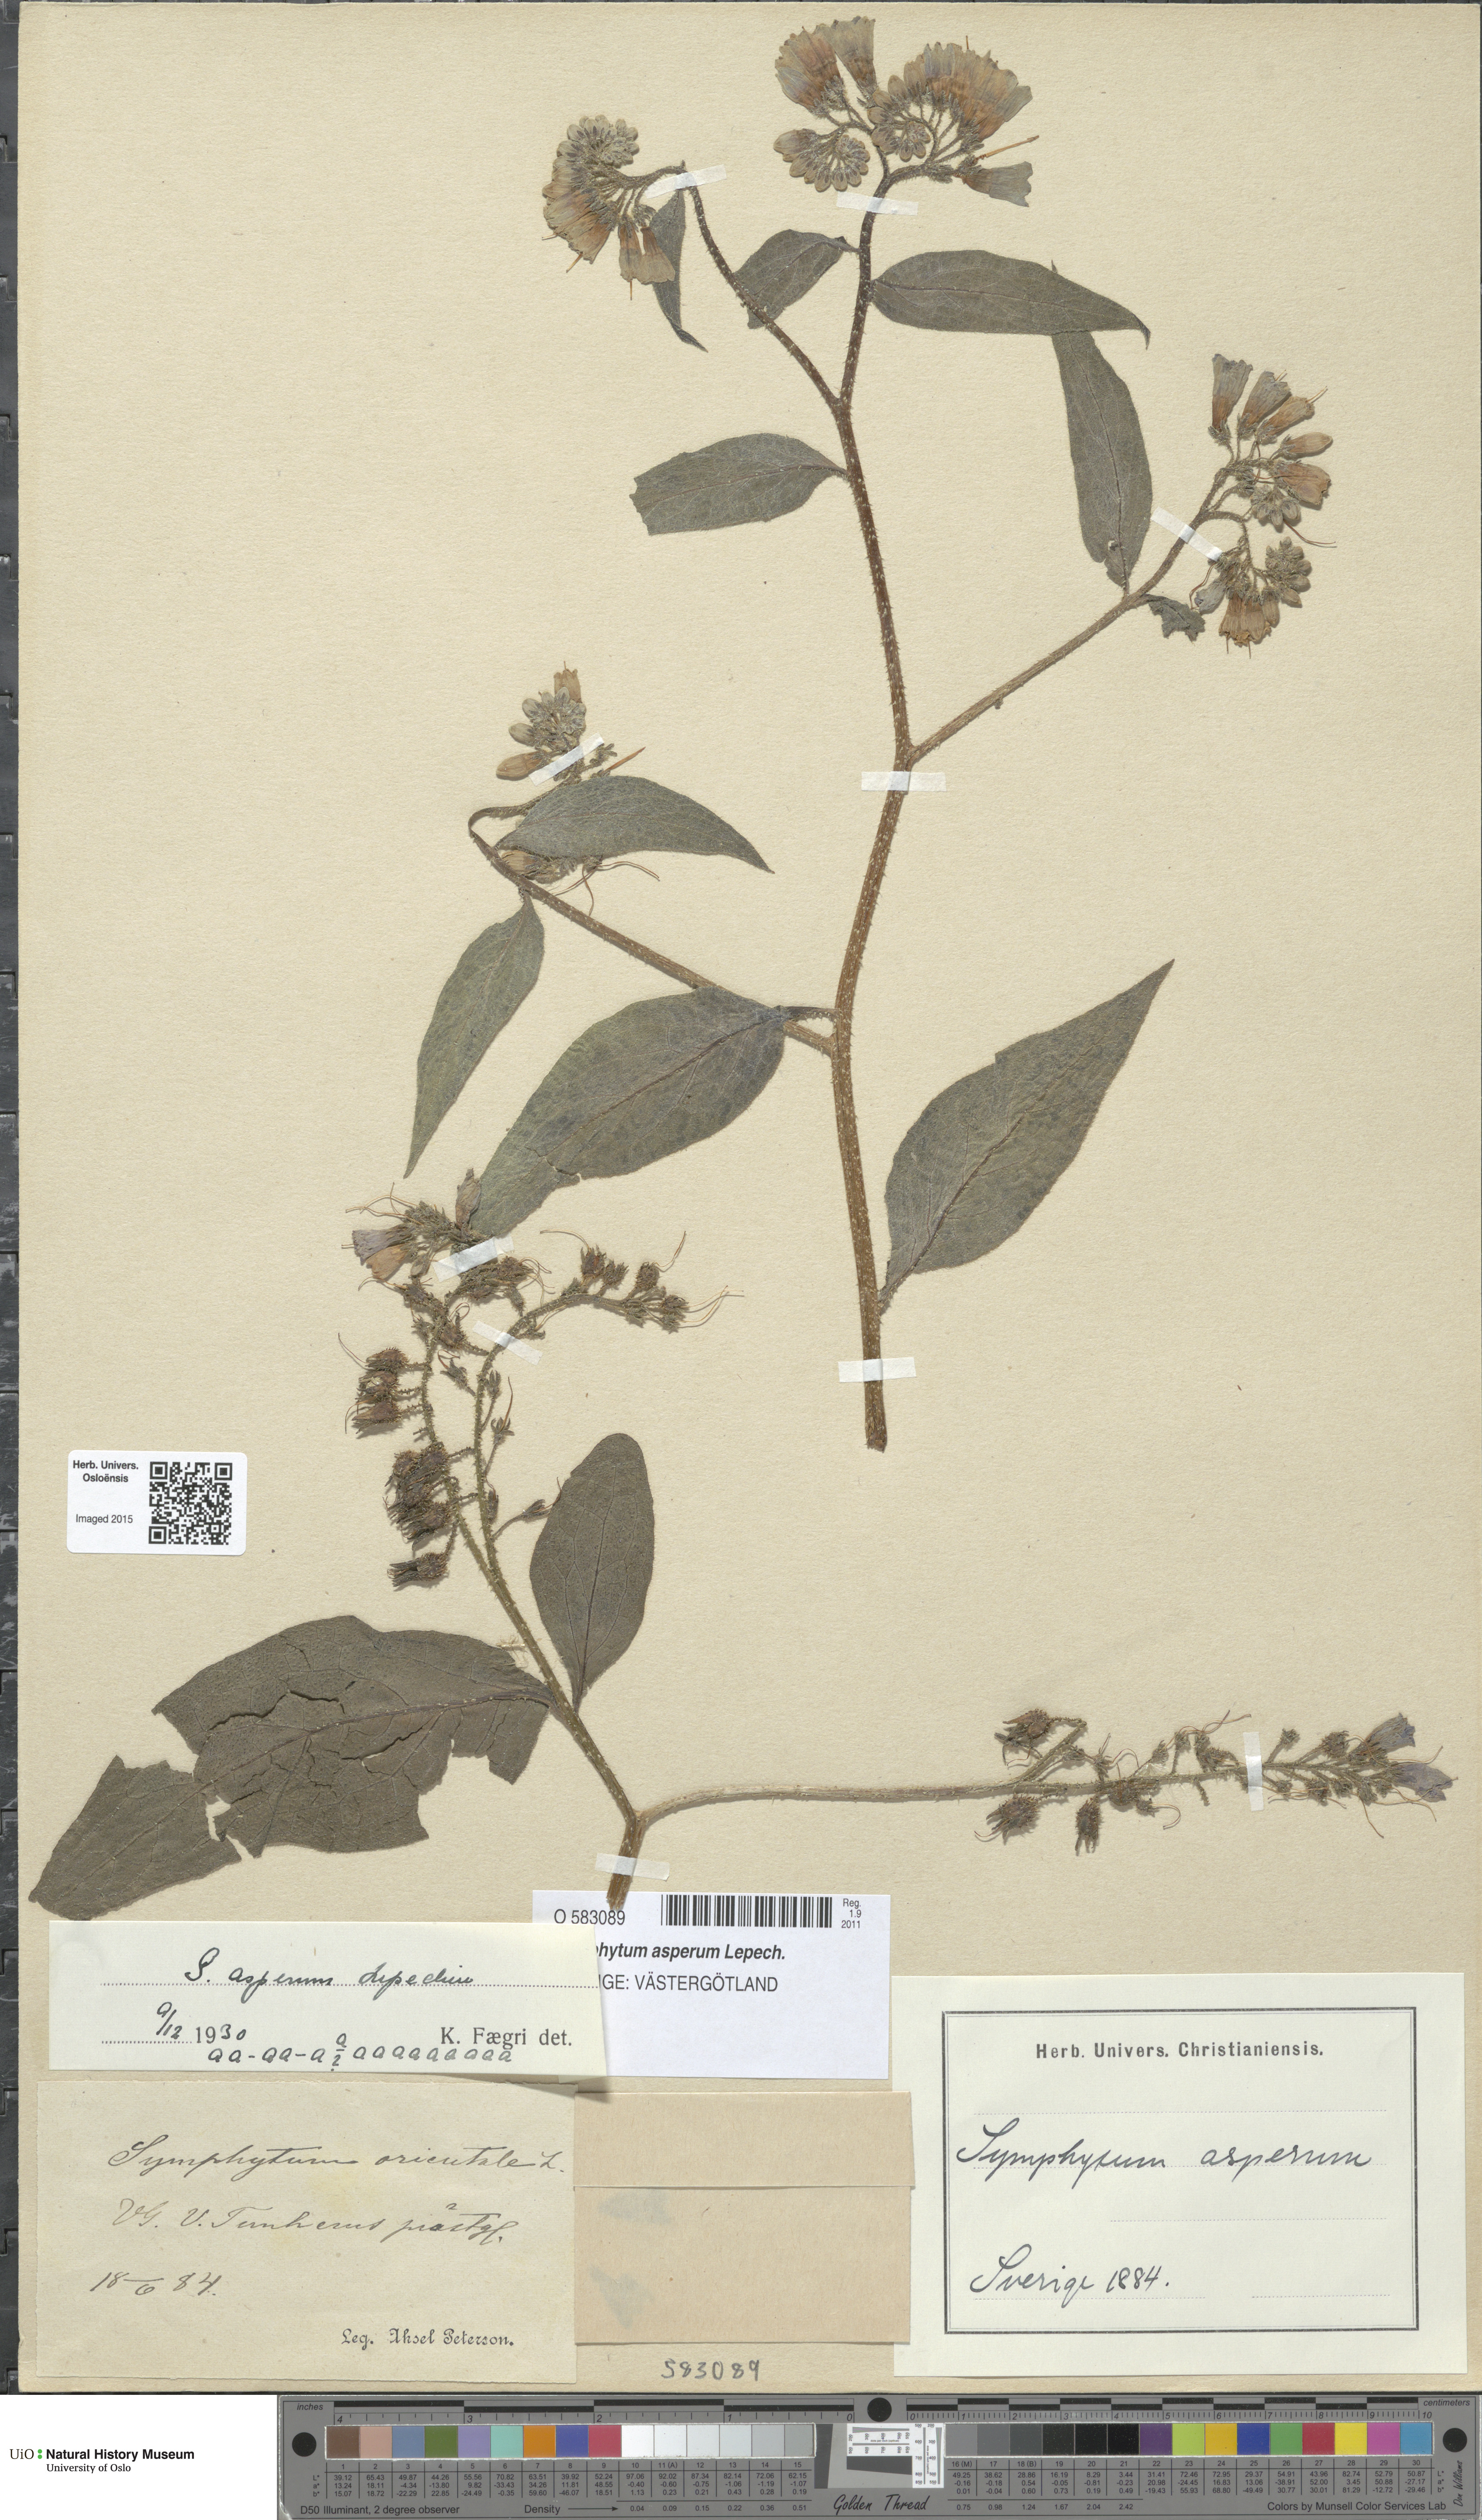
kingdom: Plantae
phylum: Tracheophyta
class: Magnoliopsida
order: Boraginales
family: Boraginaceae
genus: Symphytum
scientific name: Symphytum asperum
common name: Prickly comfrey
